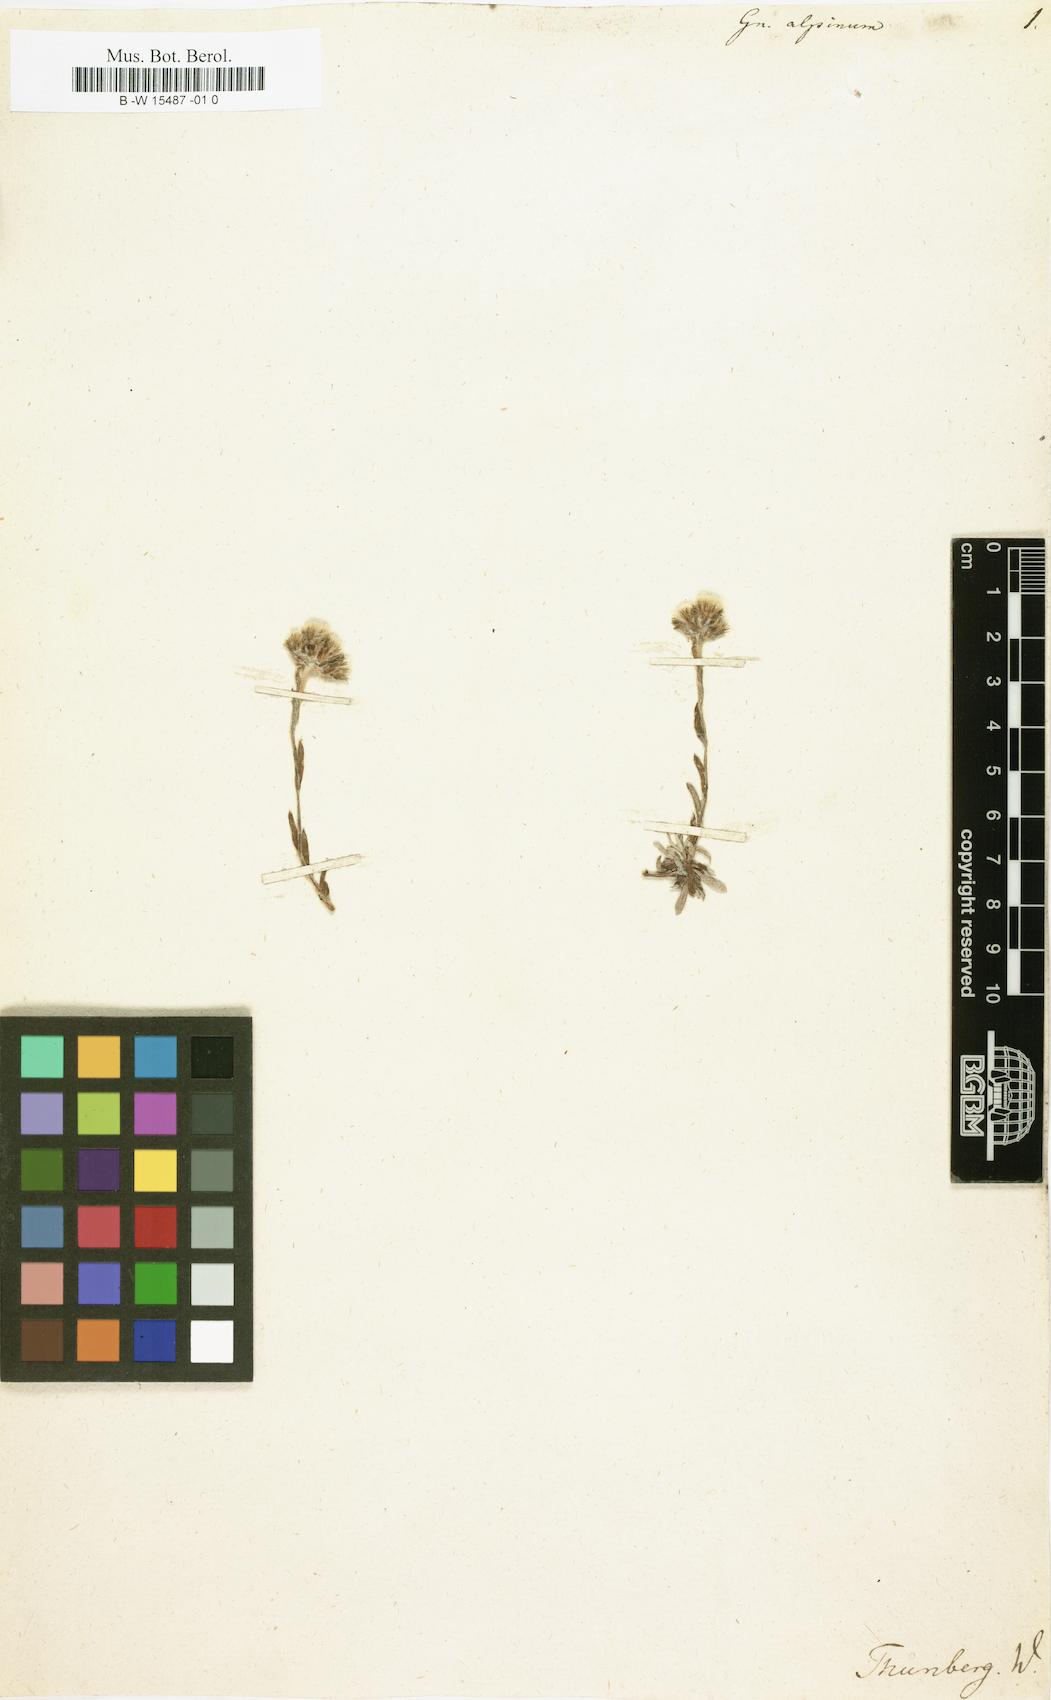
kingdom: Plantae
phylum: Tracheophyta
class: Magnoliopsida
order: Asterales
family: Asteraceae
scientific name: Asteraceae
